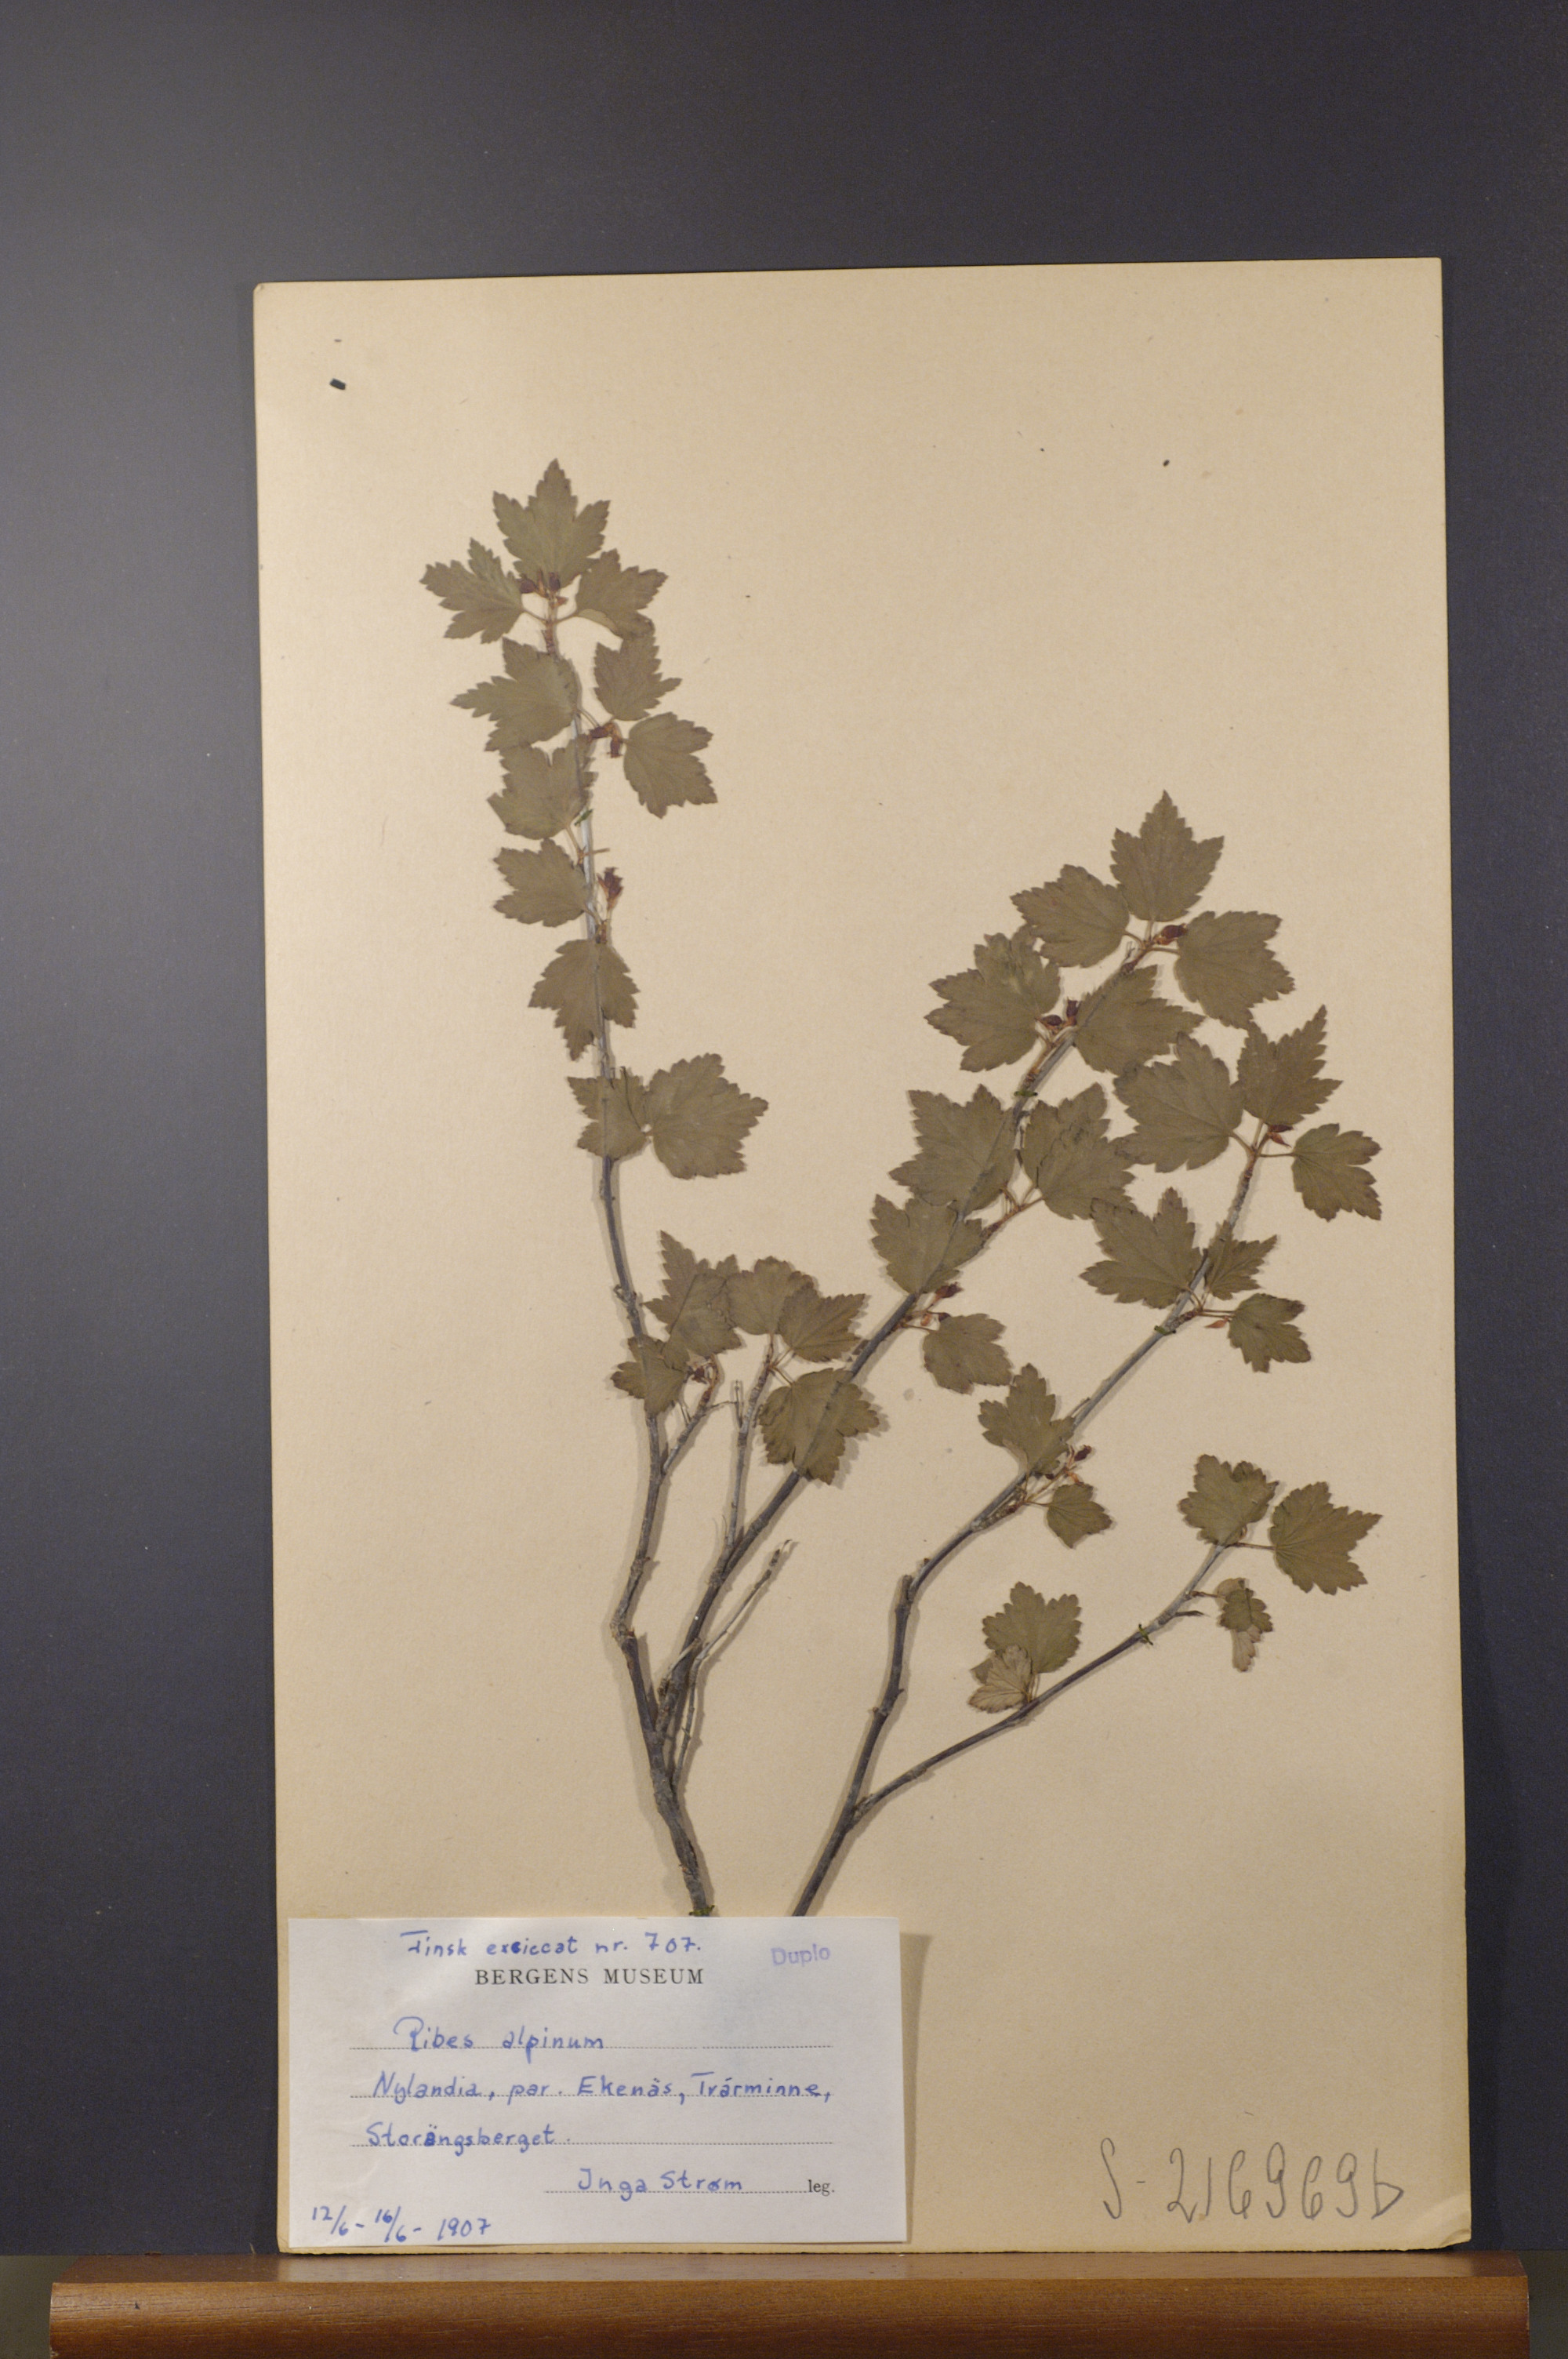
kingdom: Plantae
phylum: Tracheophyta
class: Magnoliopsida
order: Saxifragales
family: Grossulariaceae
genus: Ribes
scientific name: Ribes alpinum
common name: Alpine currant
